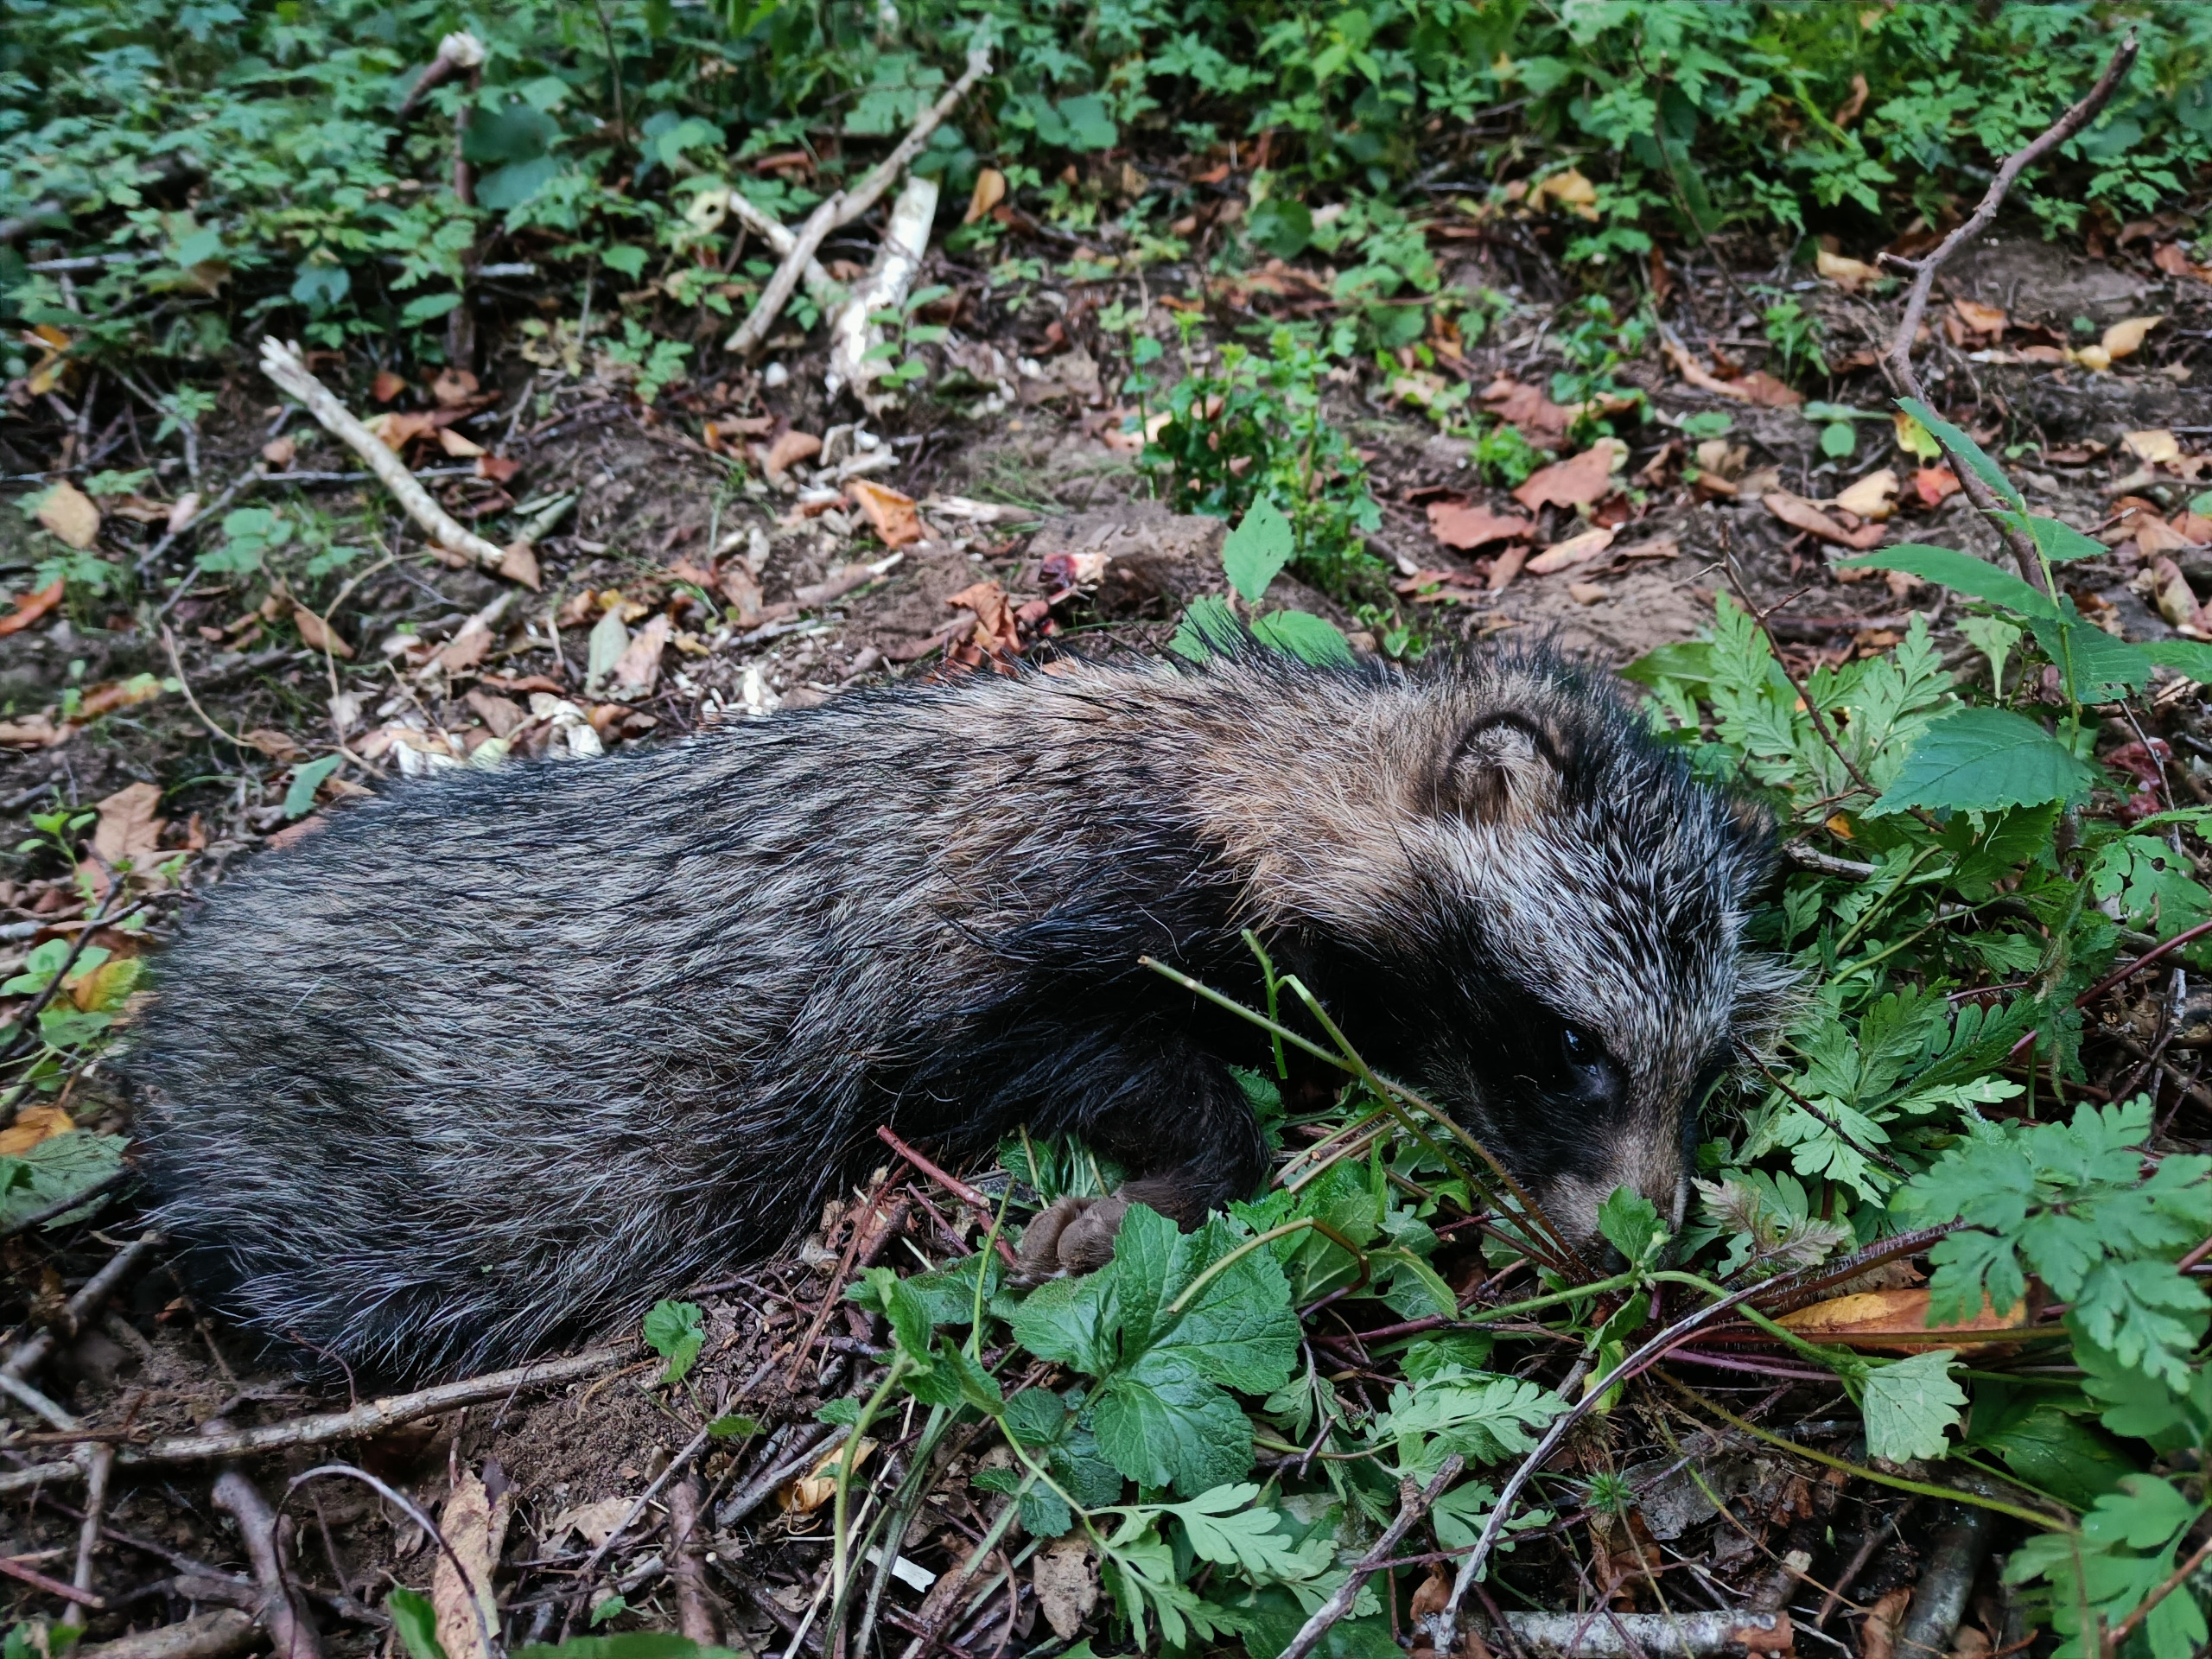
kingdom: Animalia
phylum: Chordata
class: Mammalia
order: Carnivora
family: Canidae
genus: Nyctereutes
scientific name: Nyctereutes procyonoides
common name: Mårhund
